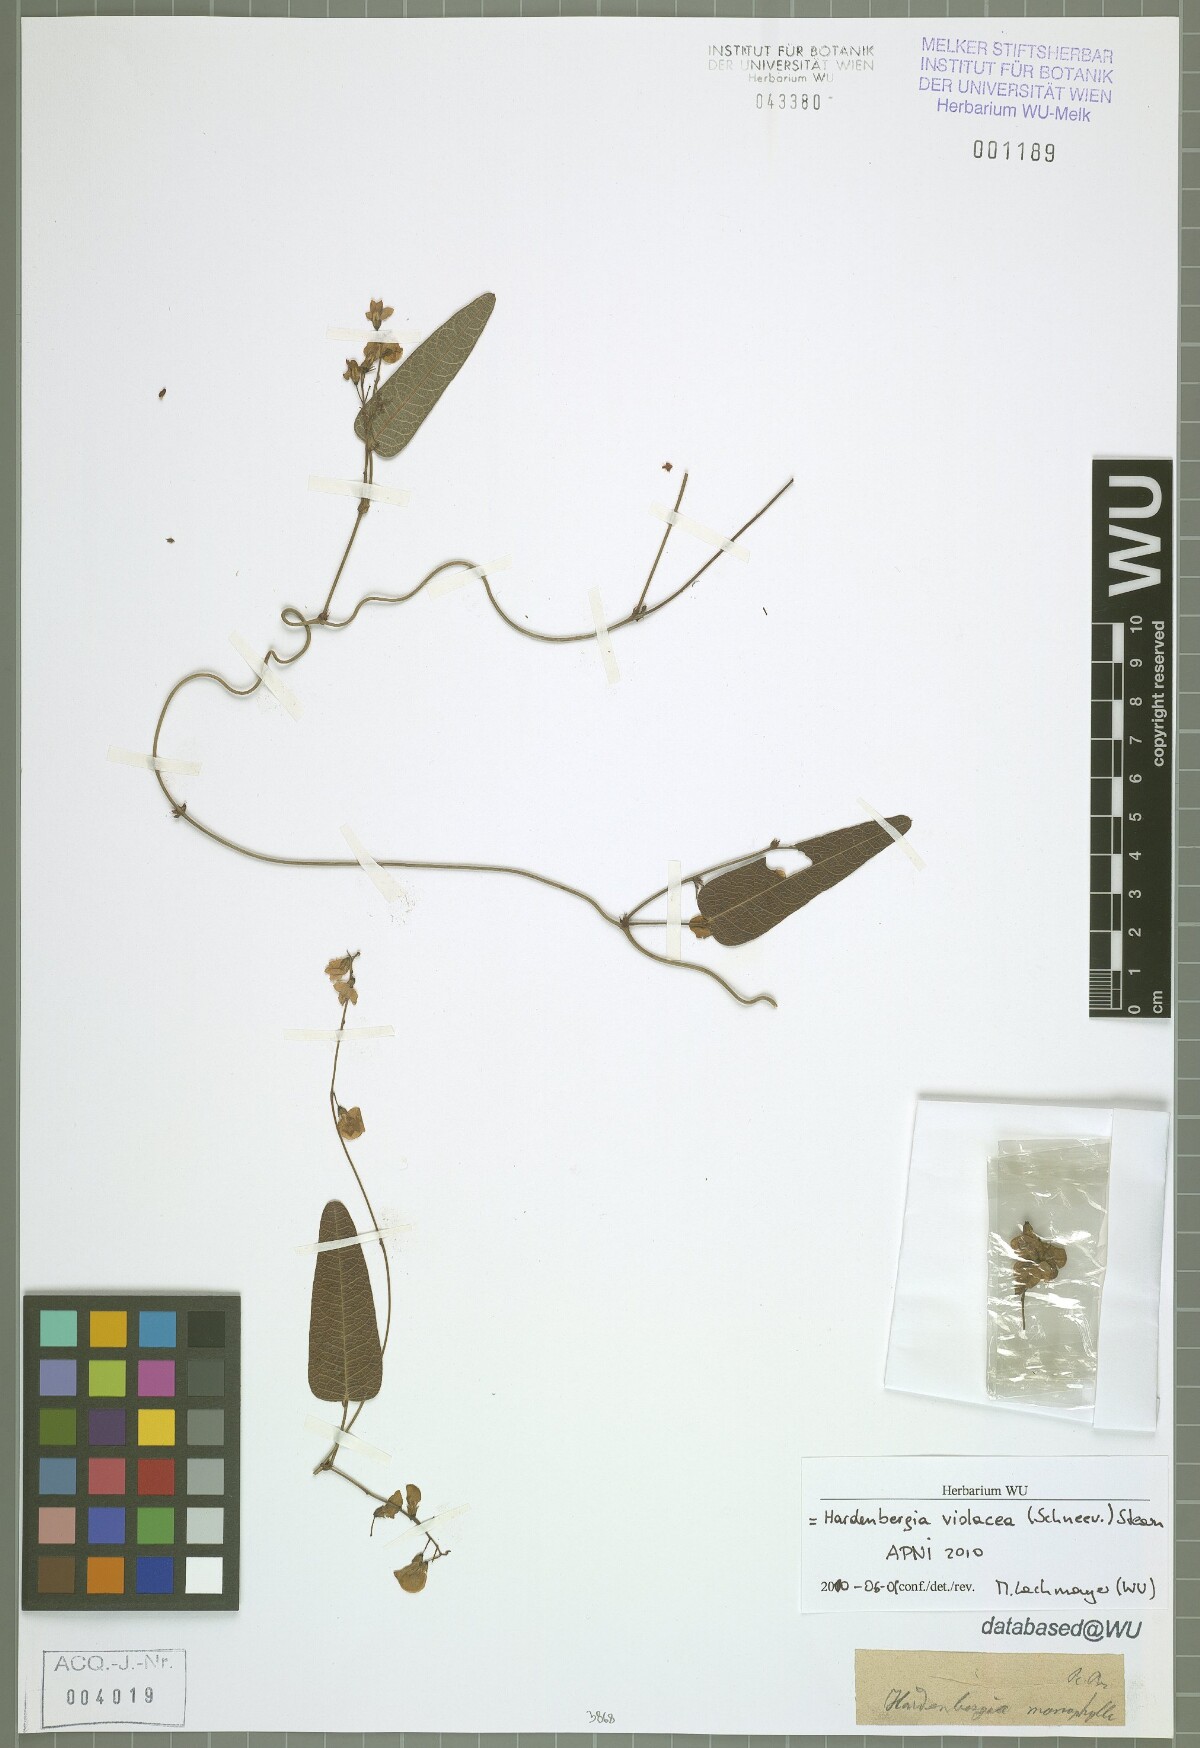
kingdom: Plantae
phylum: Tracheophyta
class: Magnoliopsida
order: Fabales
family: Fabaceae
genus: Hardenbergia
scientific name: Hardenbergia violacea
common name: Coral-pea
